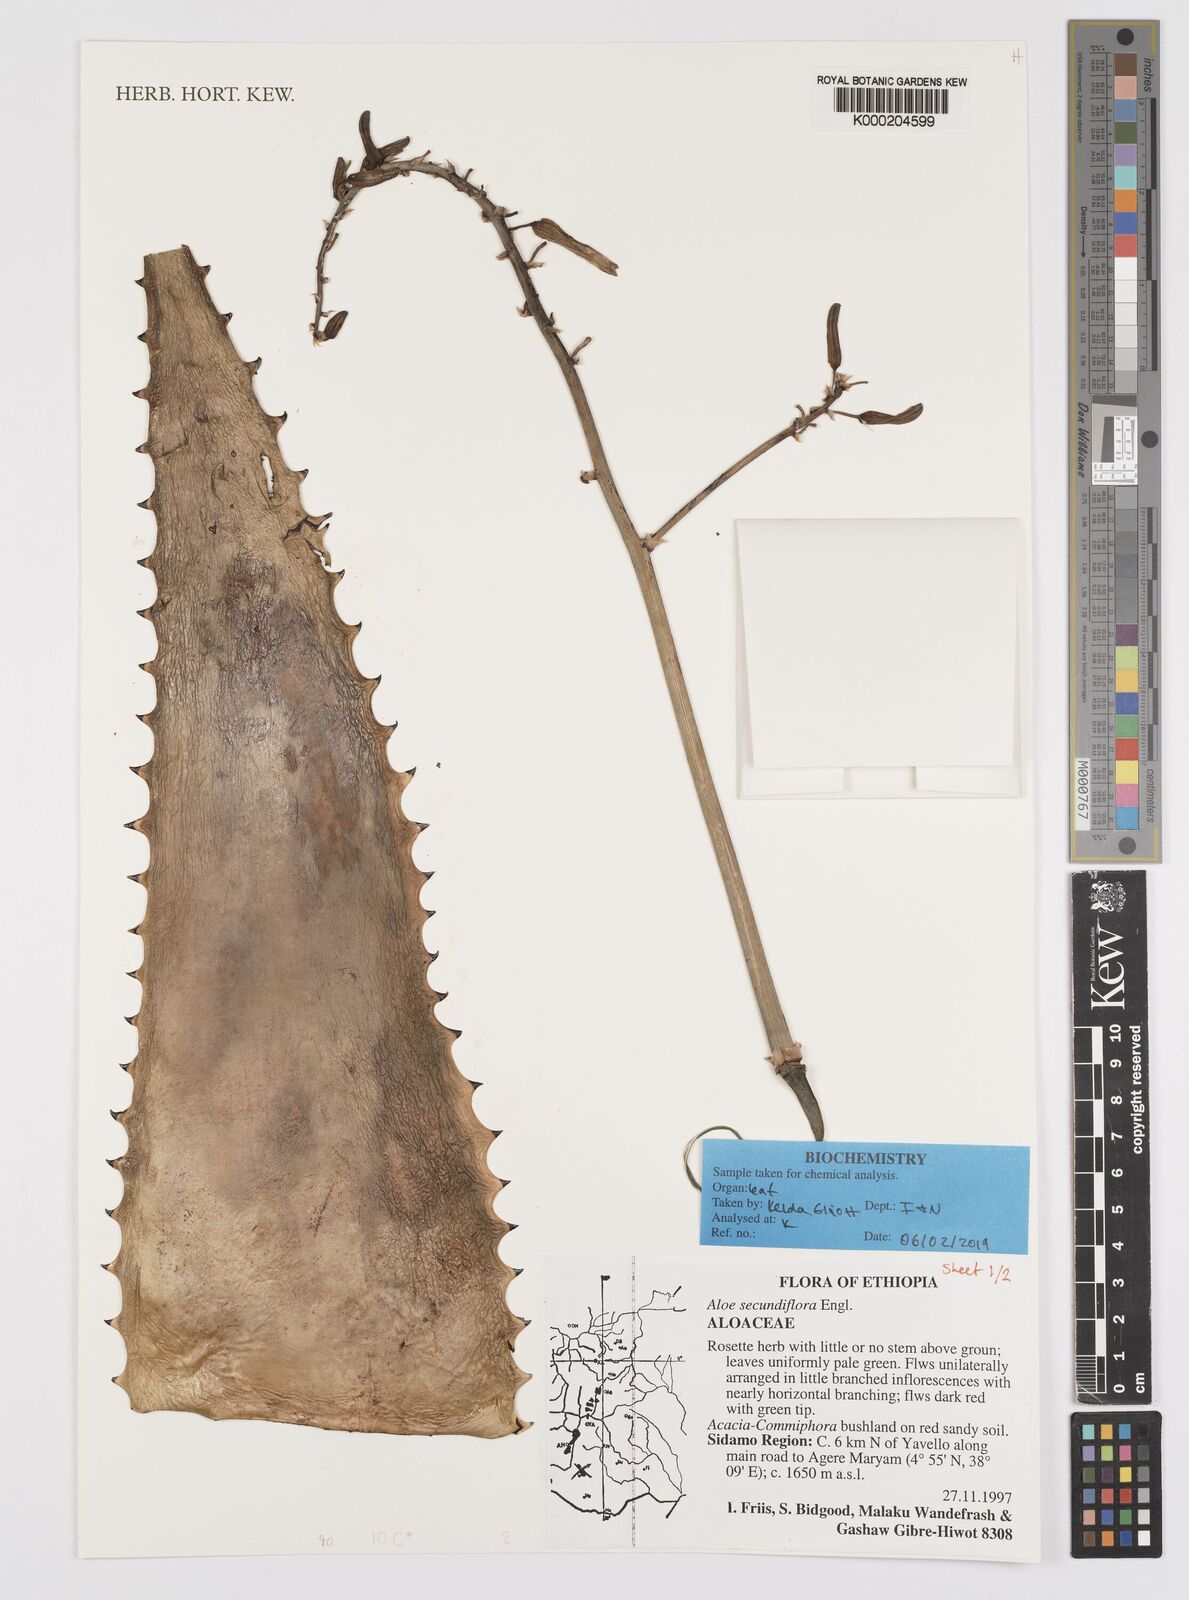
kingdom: Plantae
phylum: Tracheophyta
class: Liliopsida
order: Asparagales
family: Asphodelaceae
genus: Aloe
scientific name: Aloe secundiflora
